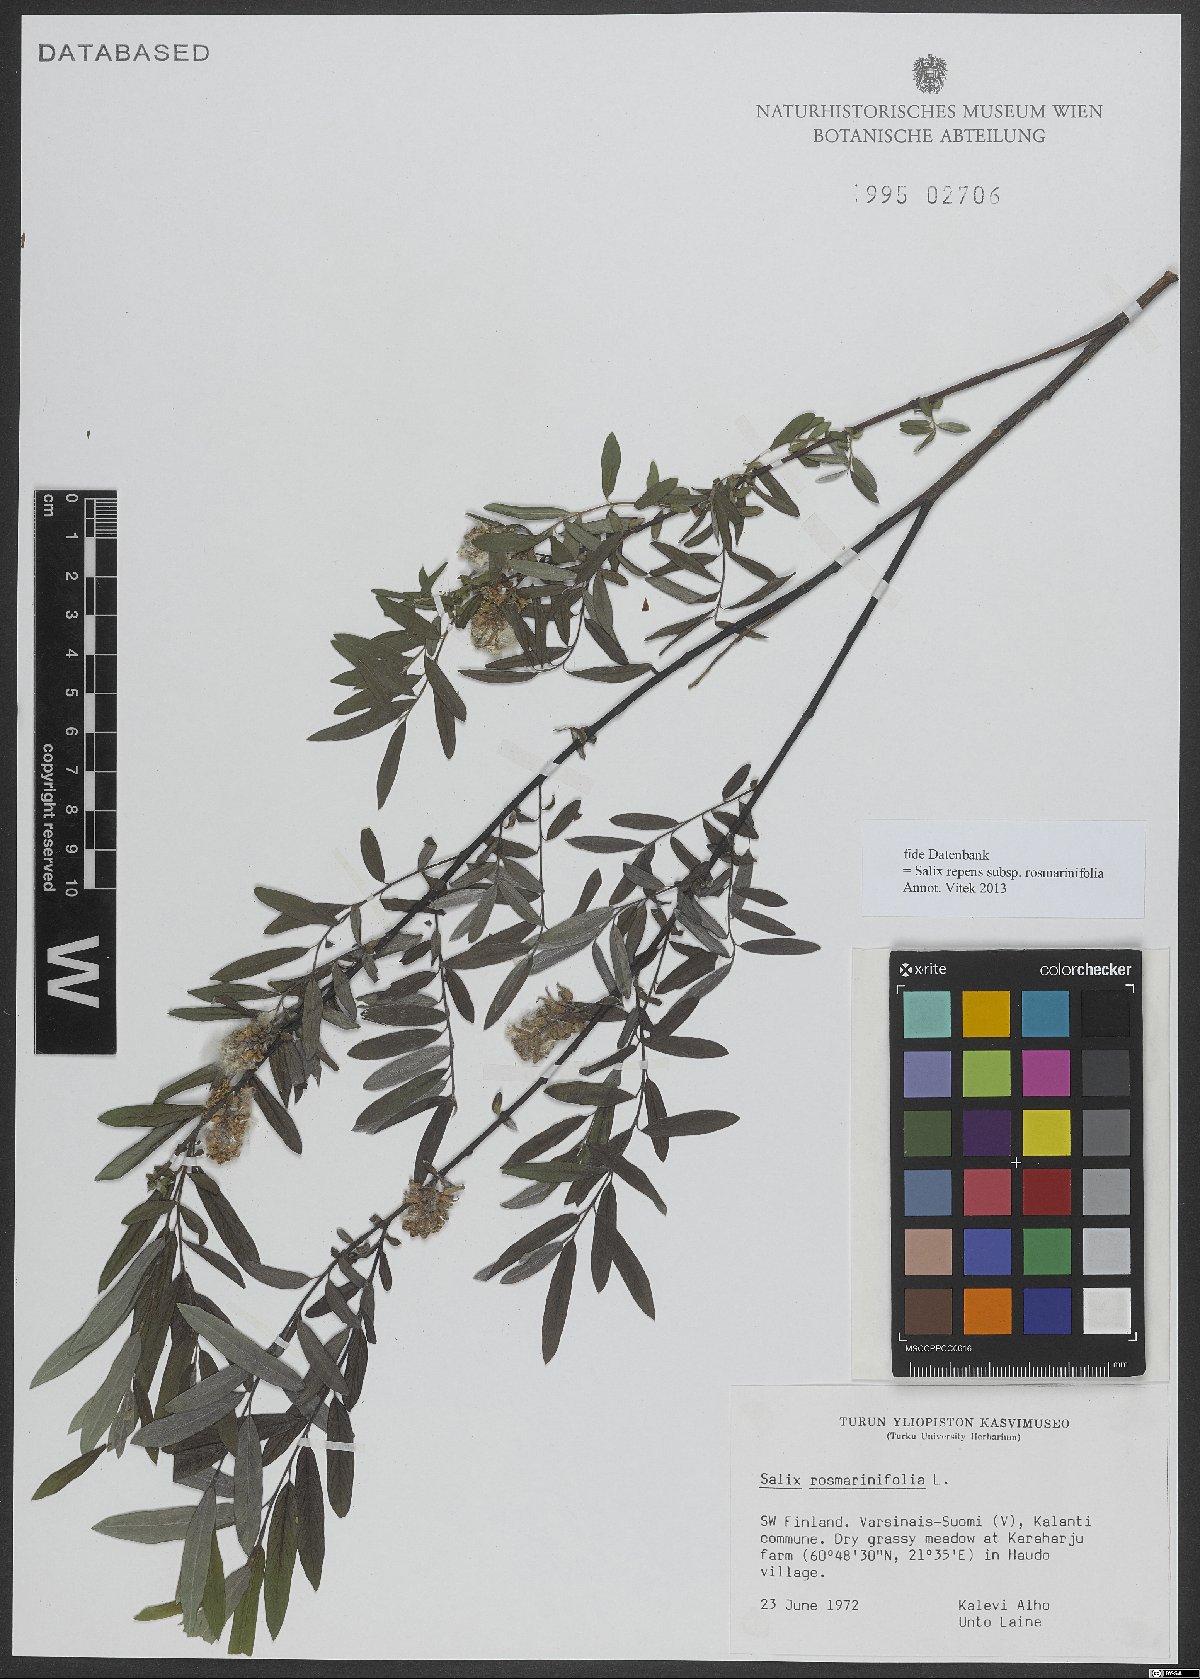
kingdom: Plantae
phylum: Tracheophyta
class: Magnoliopsida
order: Malpighiales
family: Salicaceae
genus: Salix
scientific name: Salix repens
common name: Creeping willow
